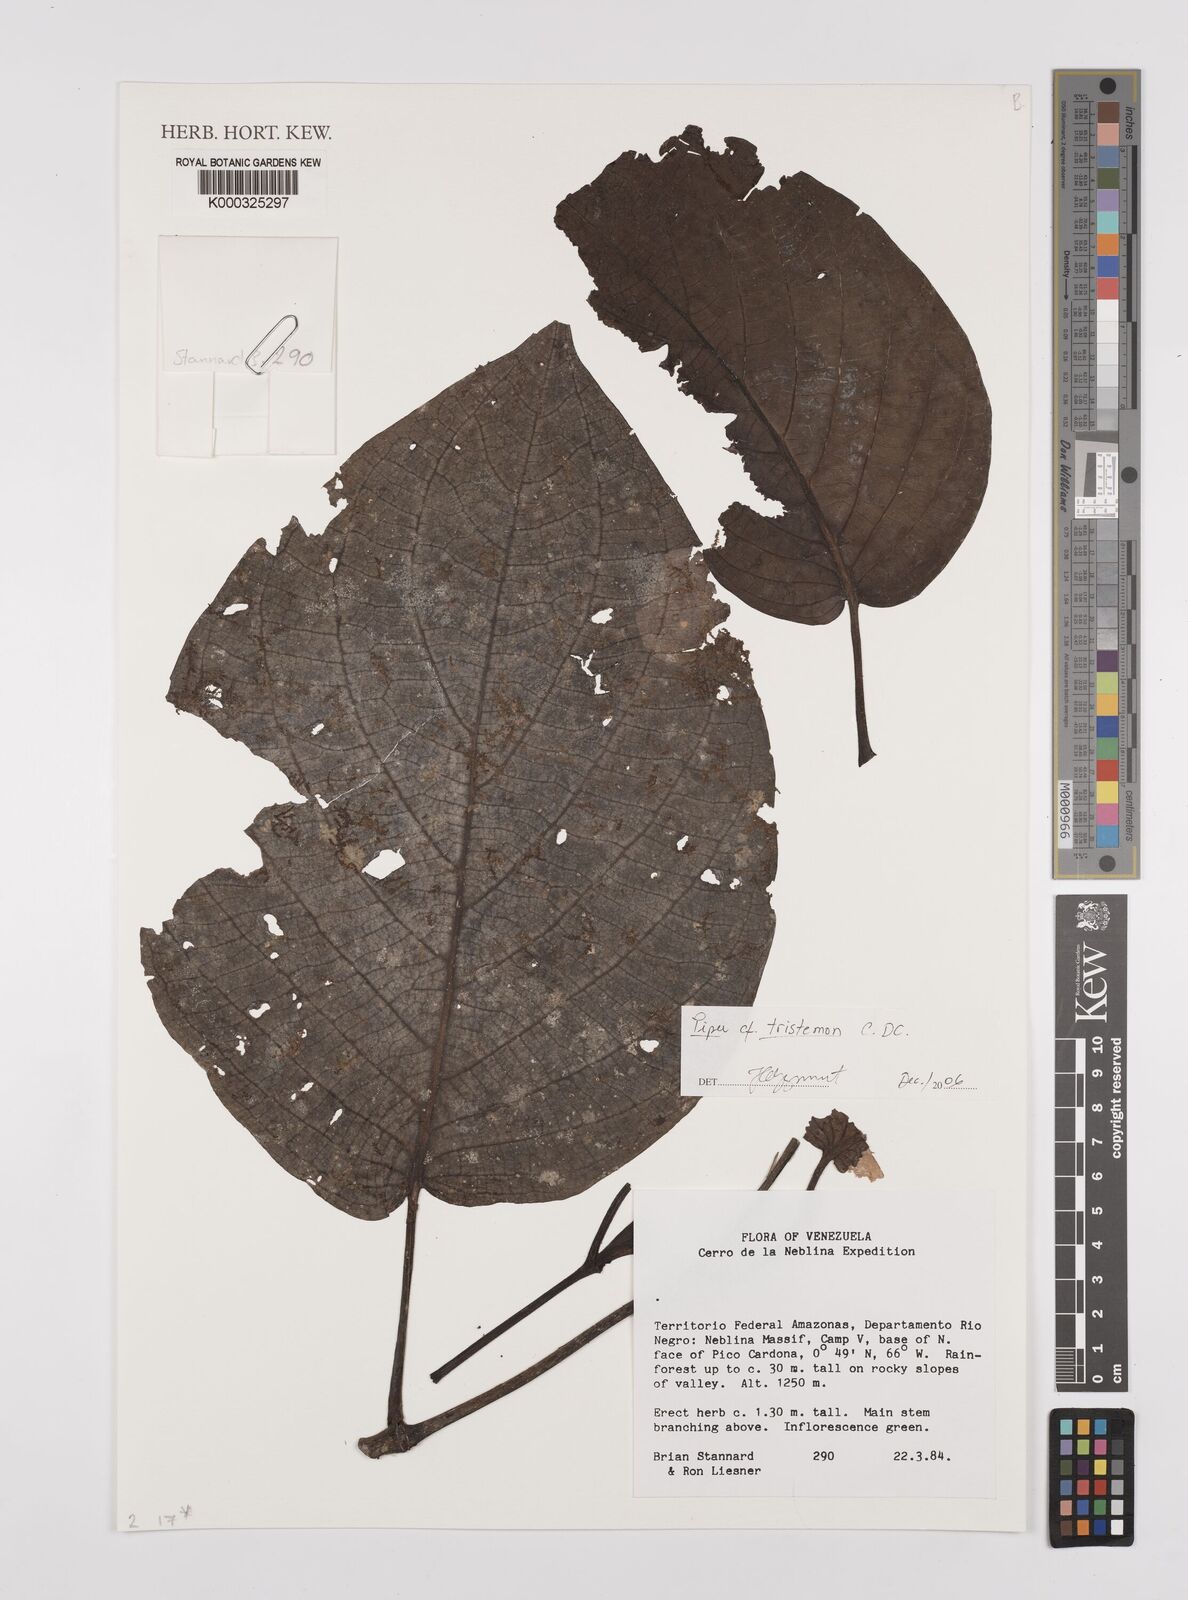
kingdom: Plantae
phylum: Tracheophyta
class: Magnoliopsida
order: Piperales
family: Piperaceae
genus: Piper
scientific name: Piper tristemon
